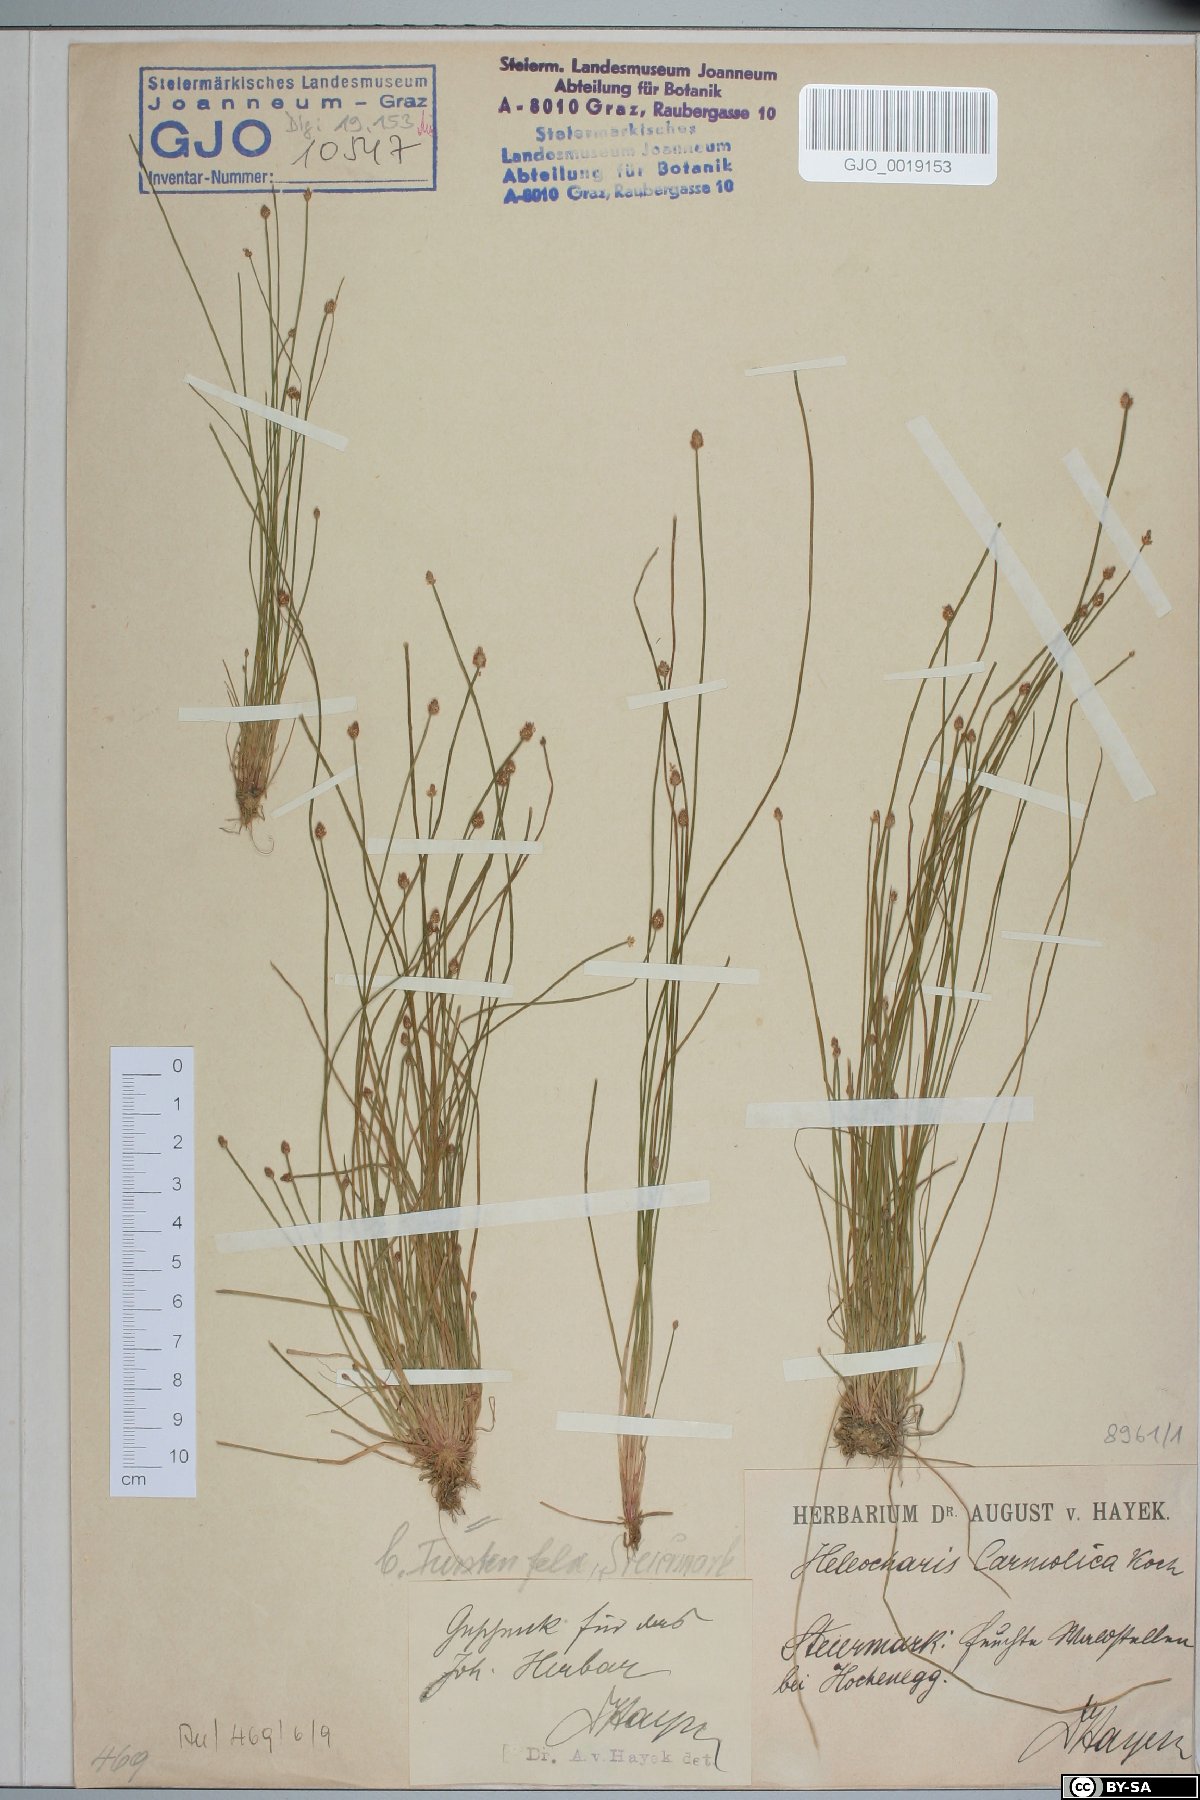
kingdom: Plantae
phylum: Tracheophyta
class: Liliopsida
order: Poales
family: Cyperaceae
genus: Eleocharis
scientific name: Eleocharis carniolica
